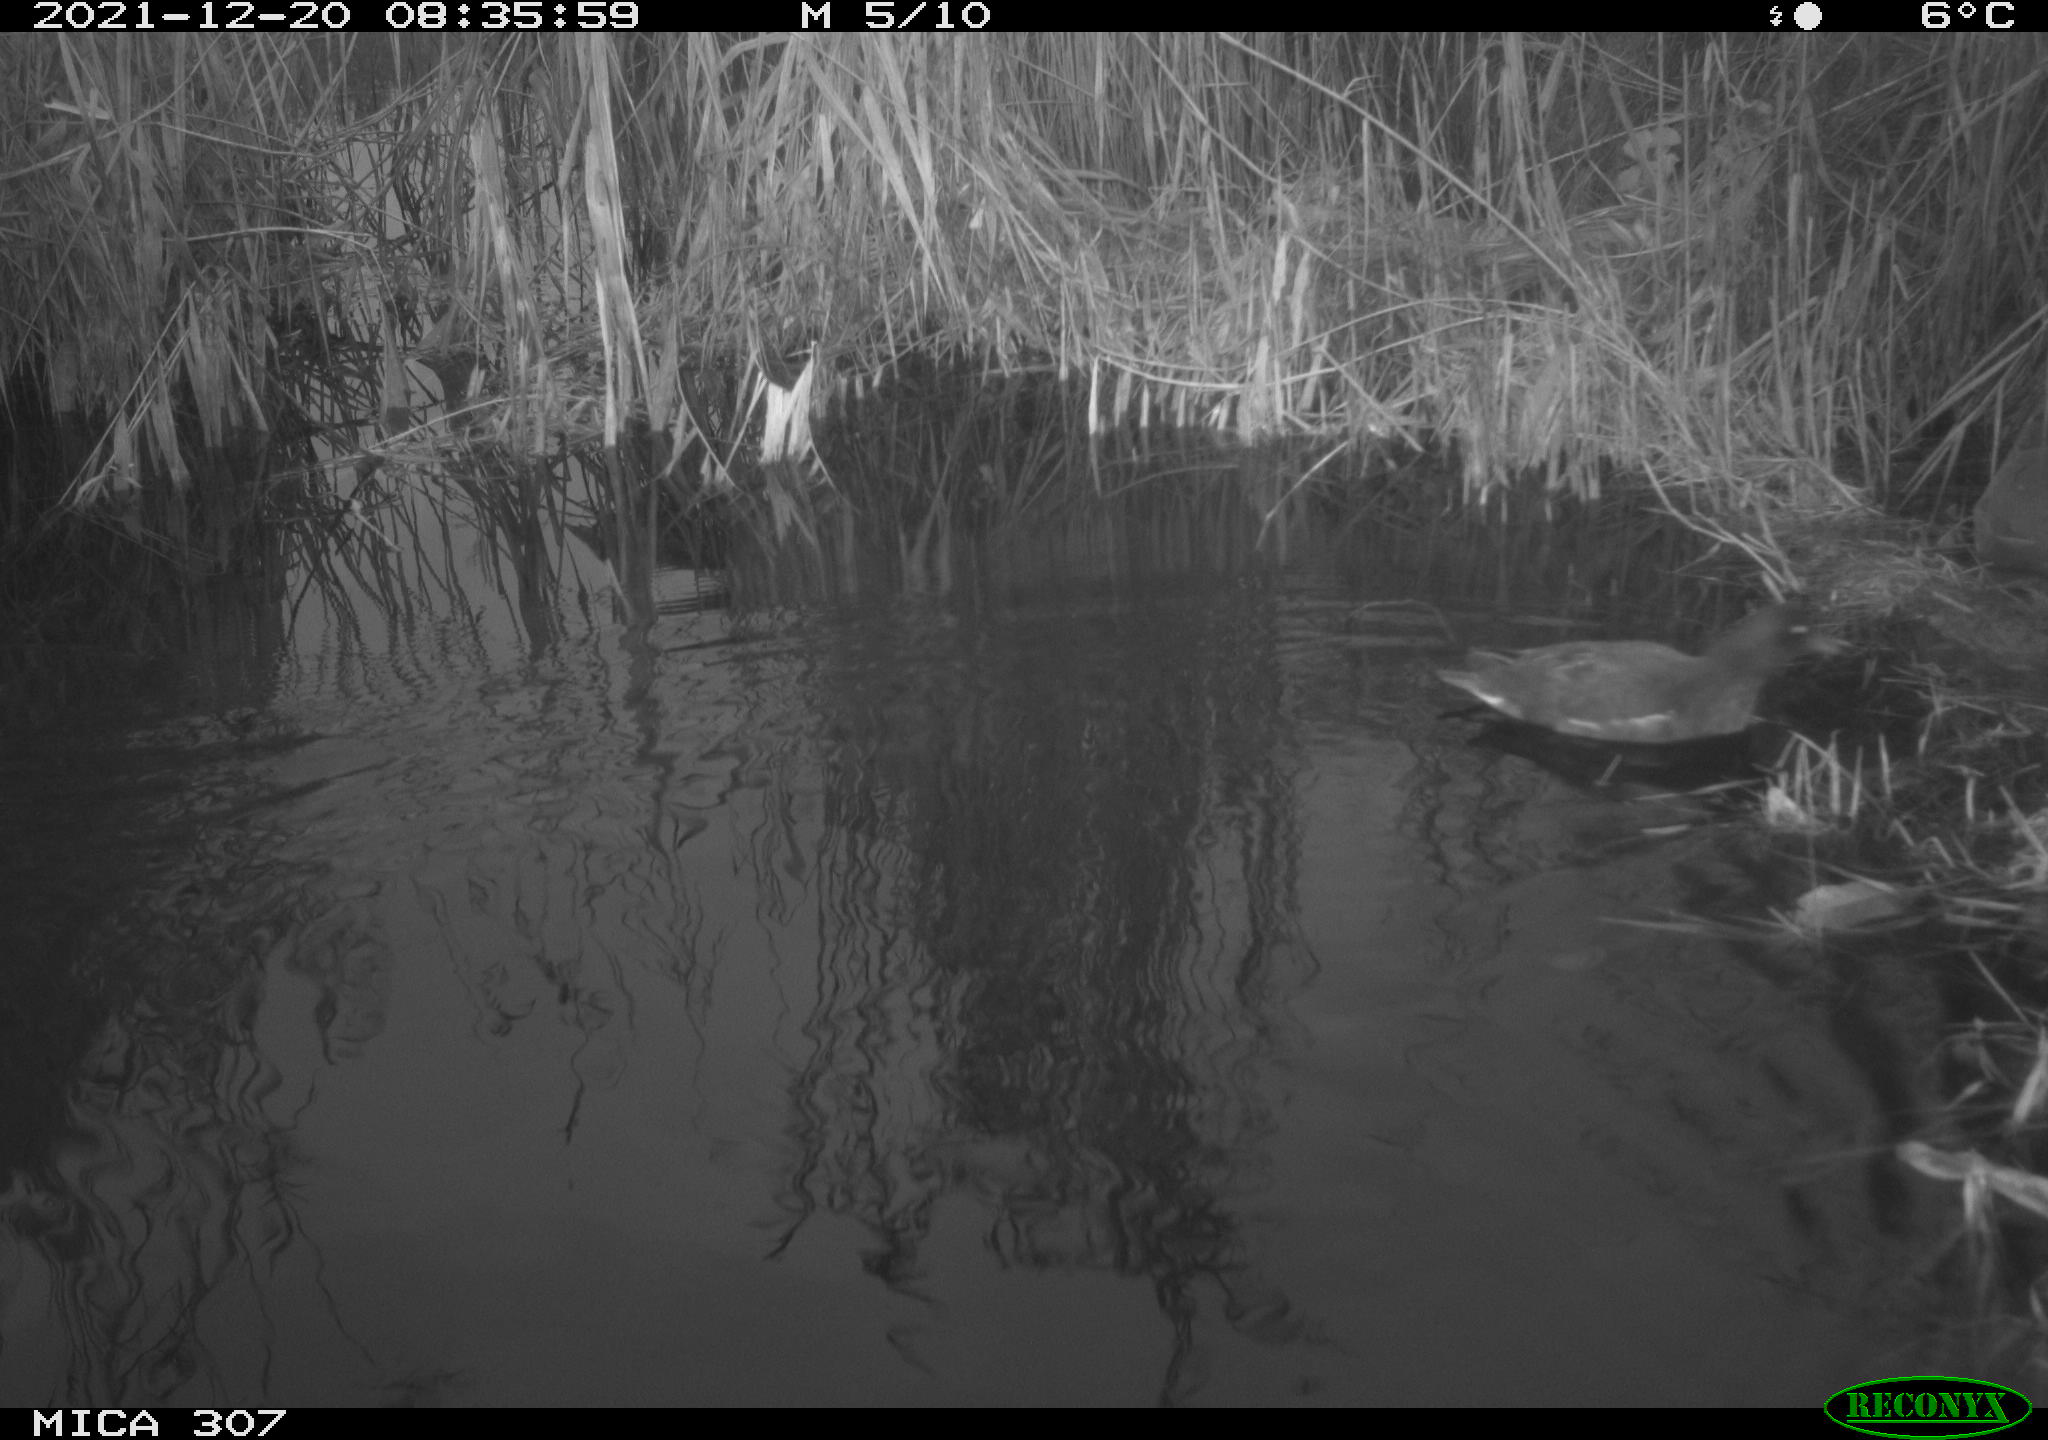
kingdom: Animalia
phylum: Chordata
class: Aves
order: Gruiformes
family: Rallidae
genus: Gallinula
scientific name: Gallinula chloropus
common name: Common moorhen
